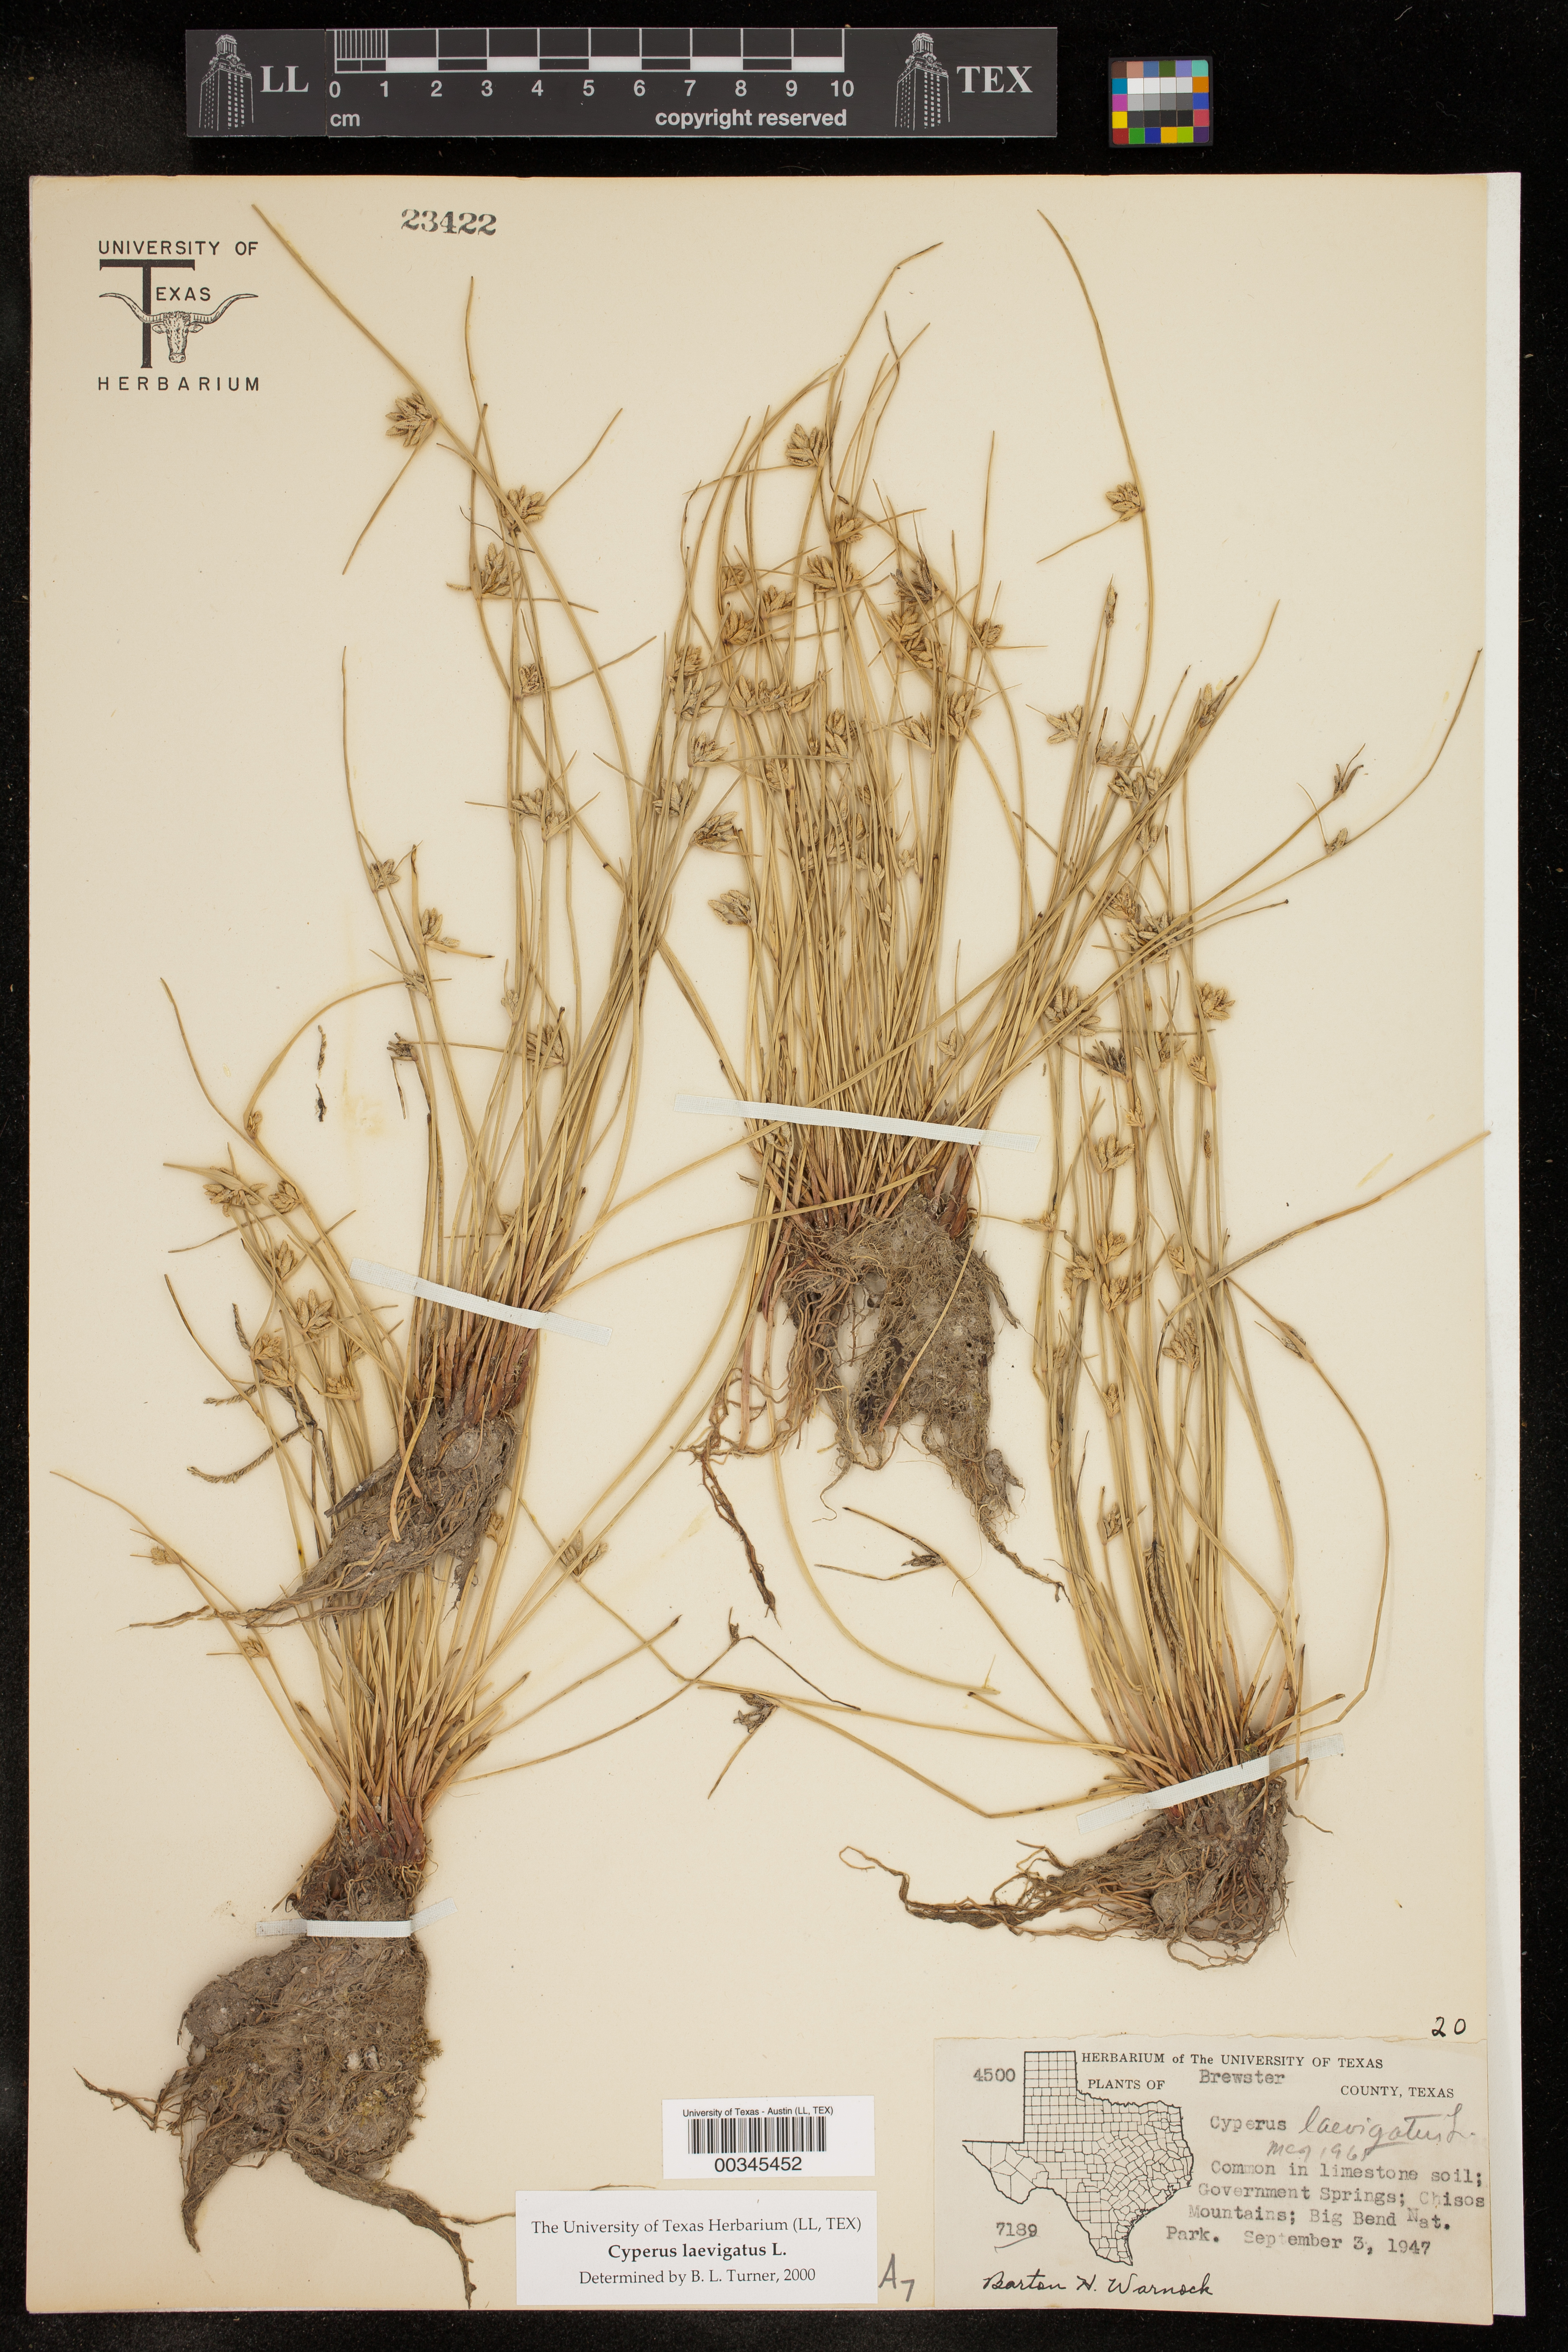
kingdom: Plantae
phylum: Tracheophyta
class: Liliopsida
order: Poales
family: Cyperaceae
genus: Cyperus
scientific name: Cyperus laevigatus
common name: Smooth flat sedge
